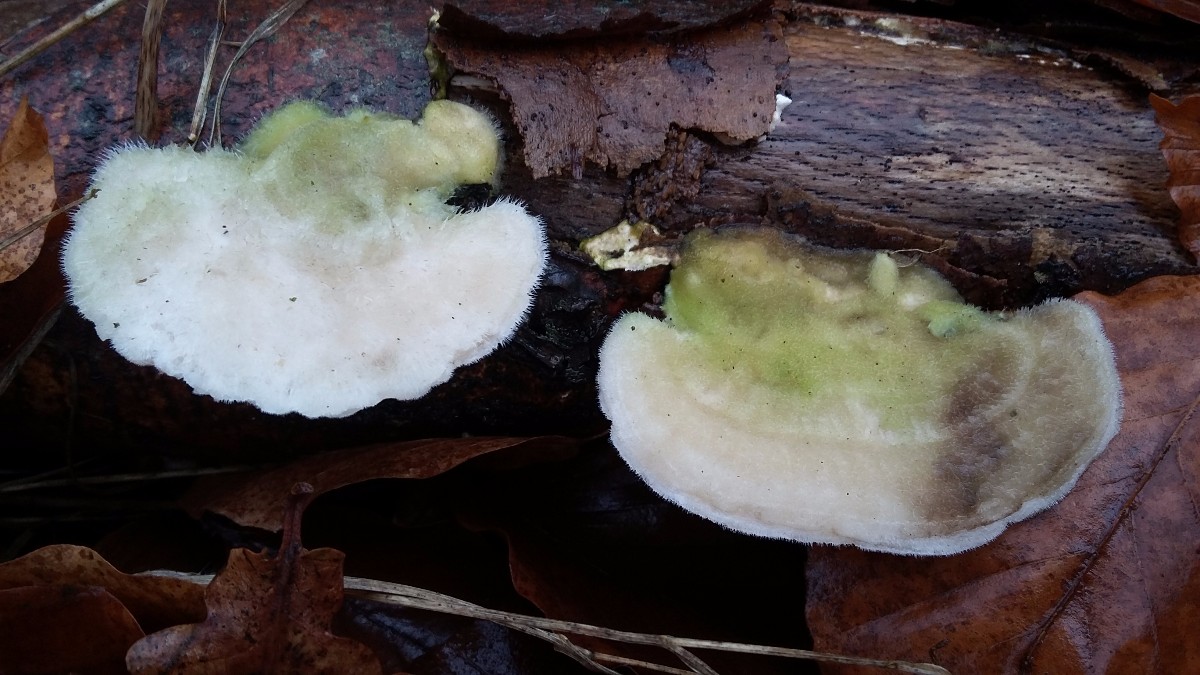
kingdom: Fungi
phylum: Basidiomycota
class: Agaricomycetes
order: Polyporales
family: Polyporaceae
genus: Trametes
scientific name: Trametes hirsuta
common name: håret læderporesvamp
